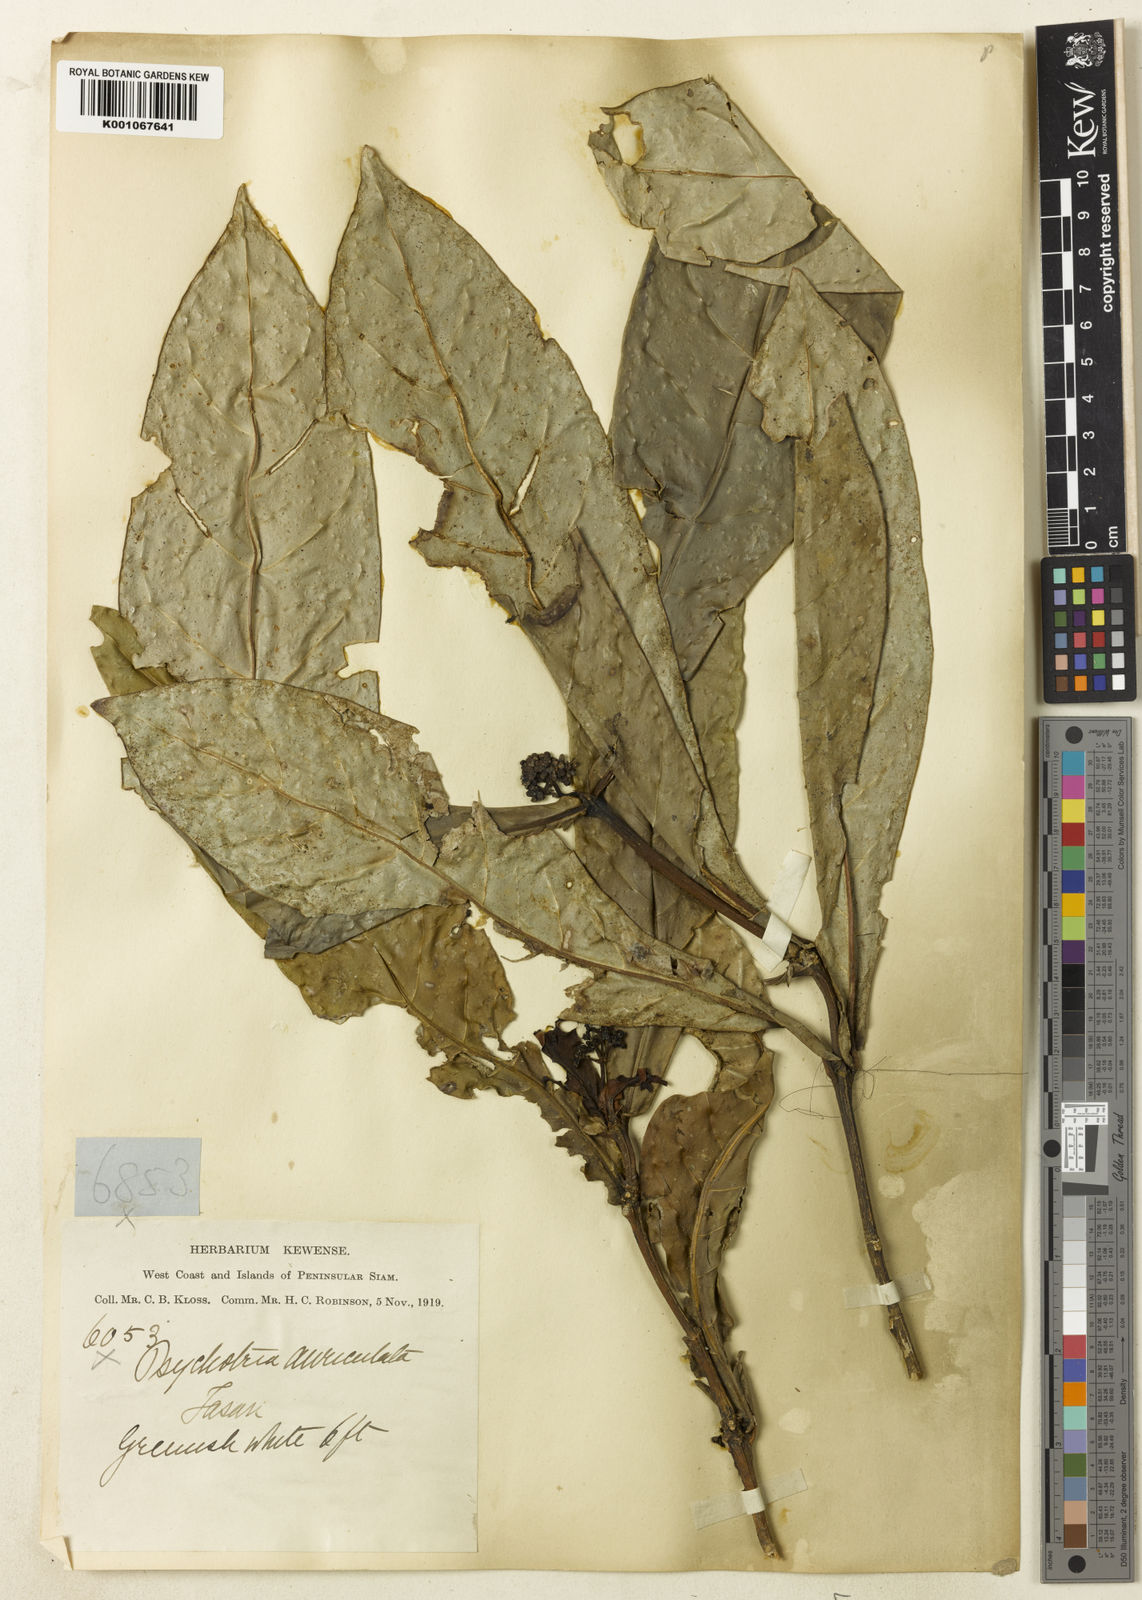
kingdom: Plantae
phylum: Tracheophyta
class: Magnoliopsida
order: Gentianales
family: Rubiaceae
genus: Psychotria
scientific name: Psychotria klossii
